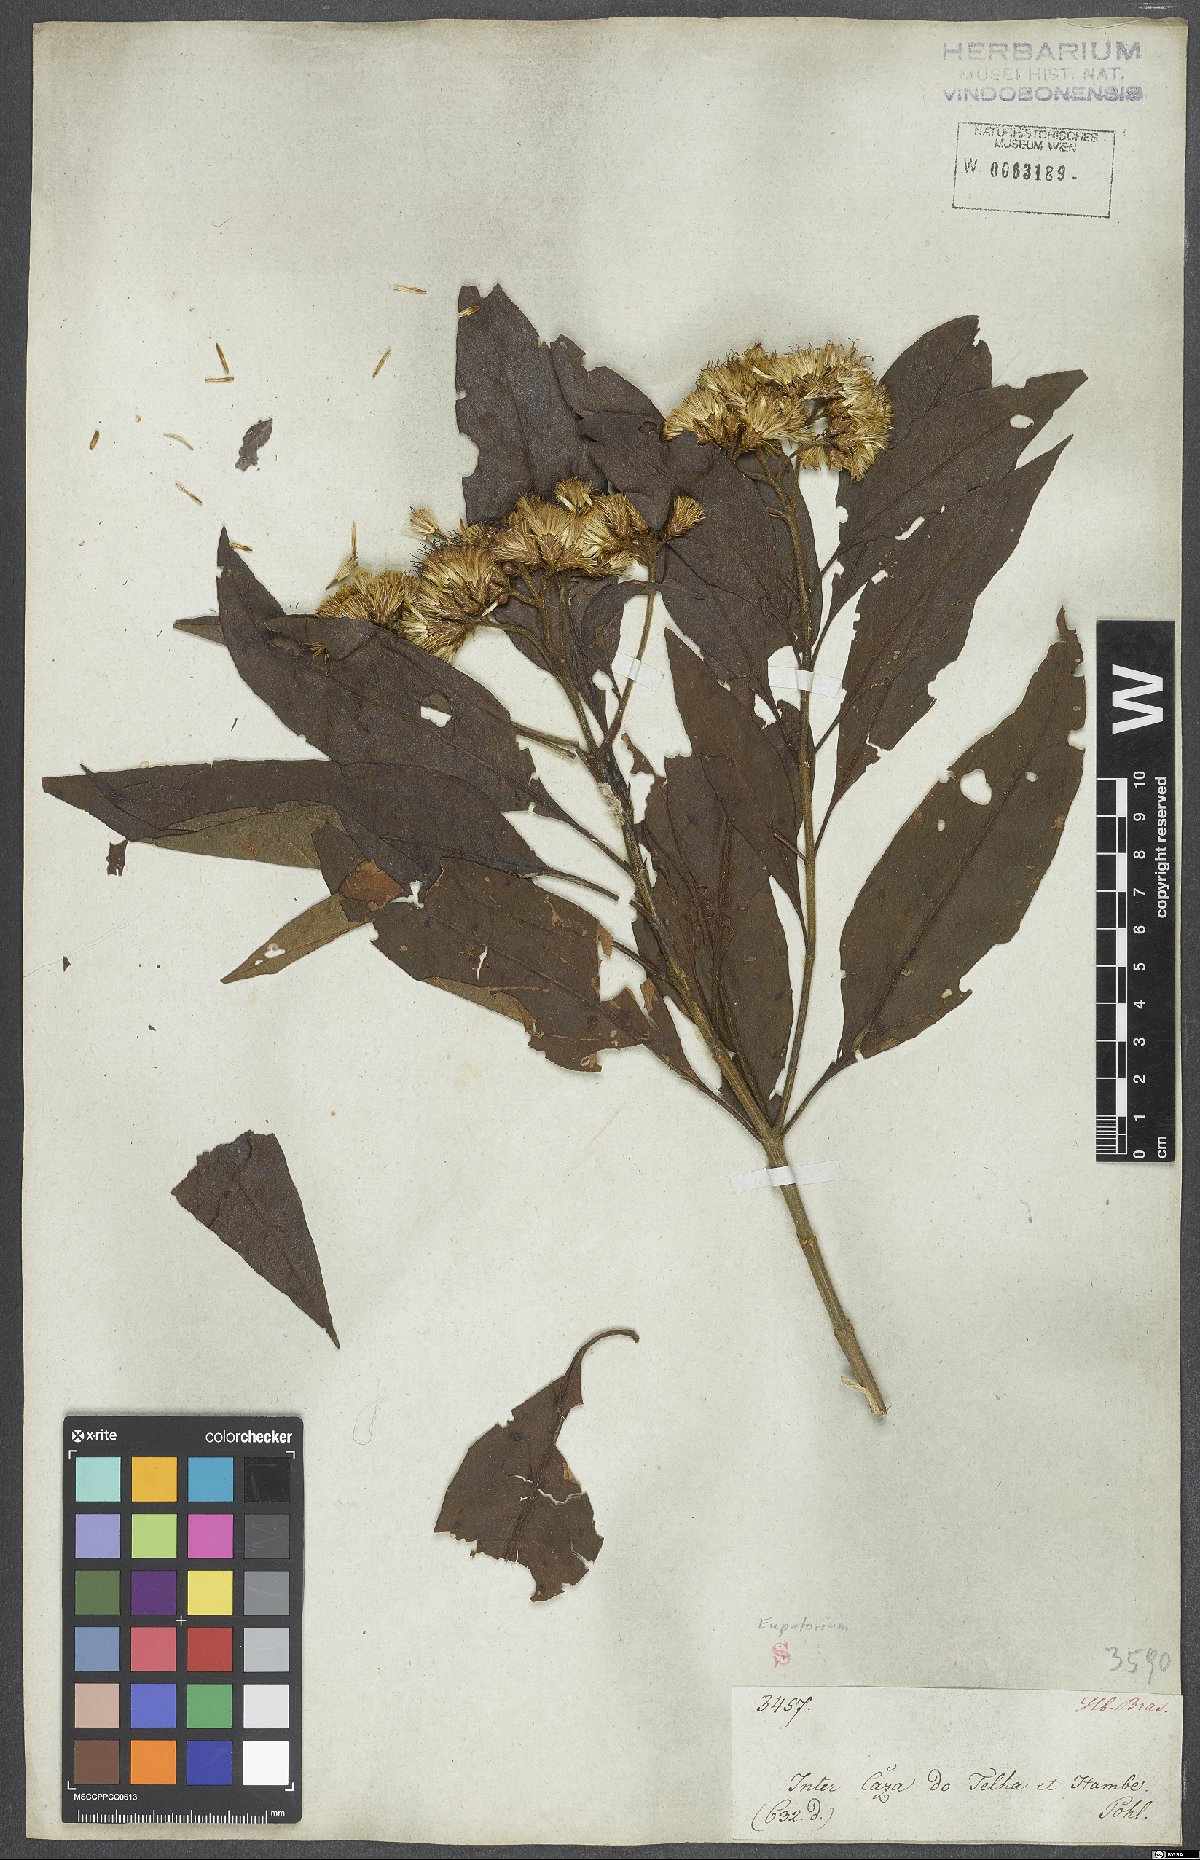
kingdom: Plantae
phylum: Tracheophyta
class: Magnoliopsida
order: Asterales
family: Asteraceae
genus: Eupatorium
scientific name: Eupatorium
